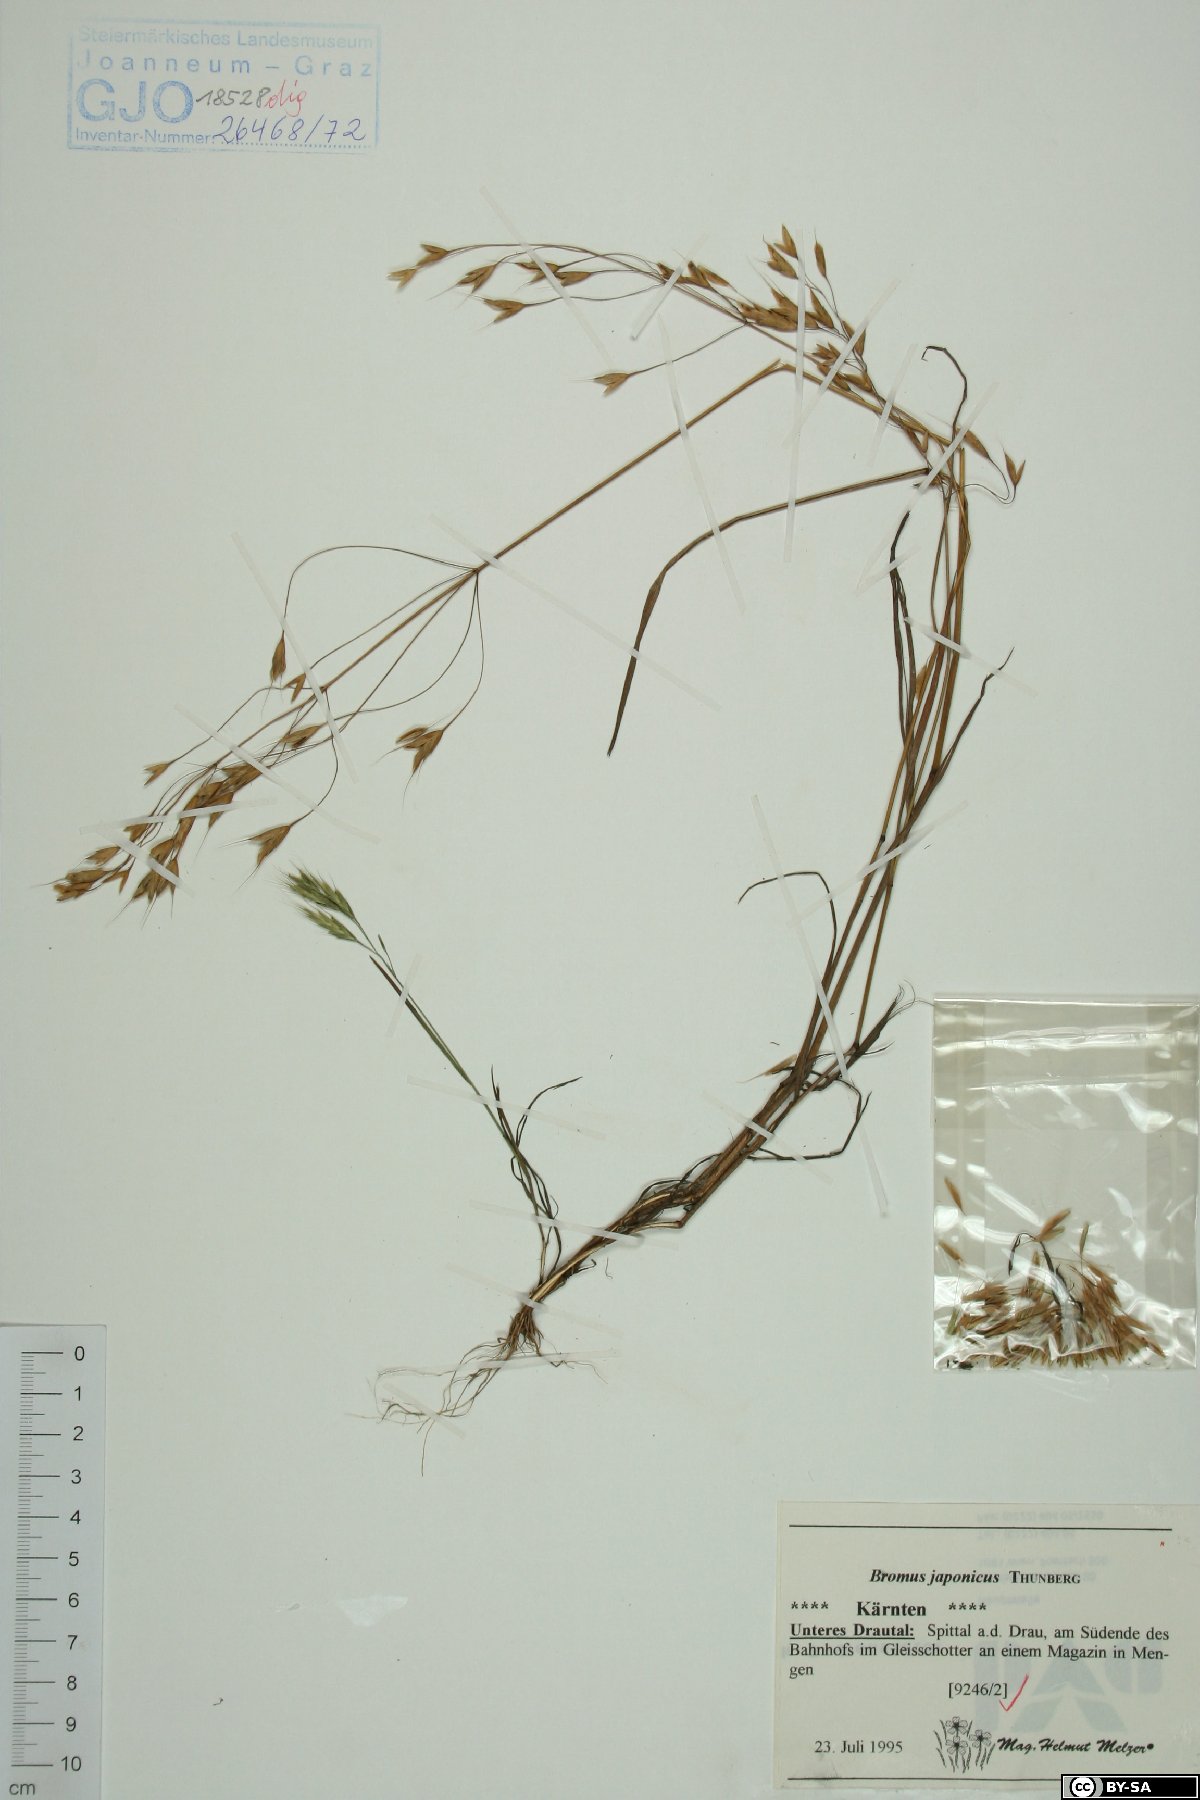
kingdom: Plantae
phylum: Tracheophyta
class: Liliopsida
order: Poales
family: Poaceae
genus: Bromus
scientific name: Bromus japonicus
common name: Japanese brome
